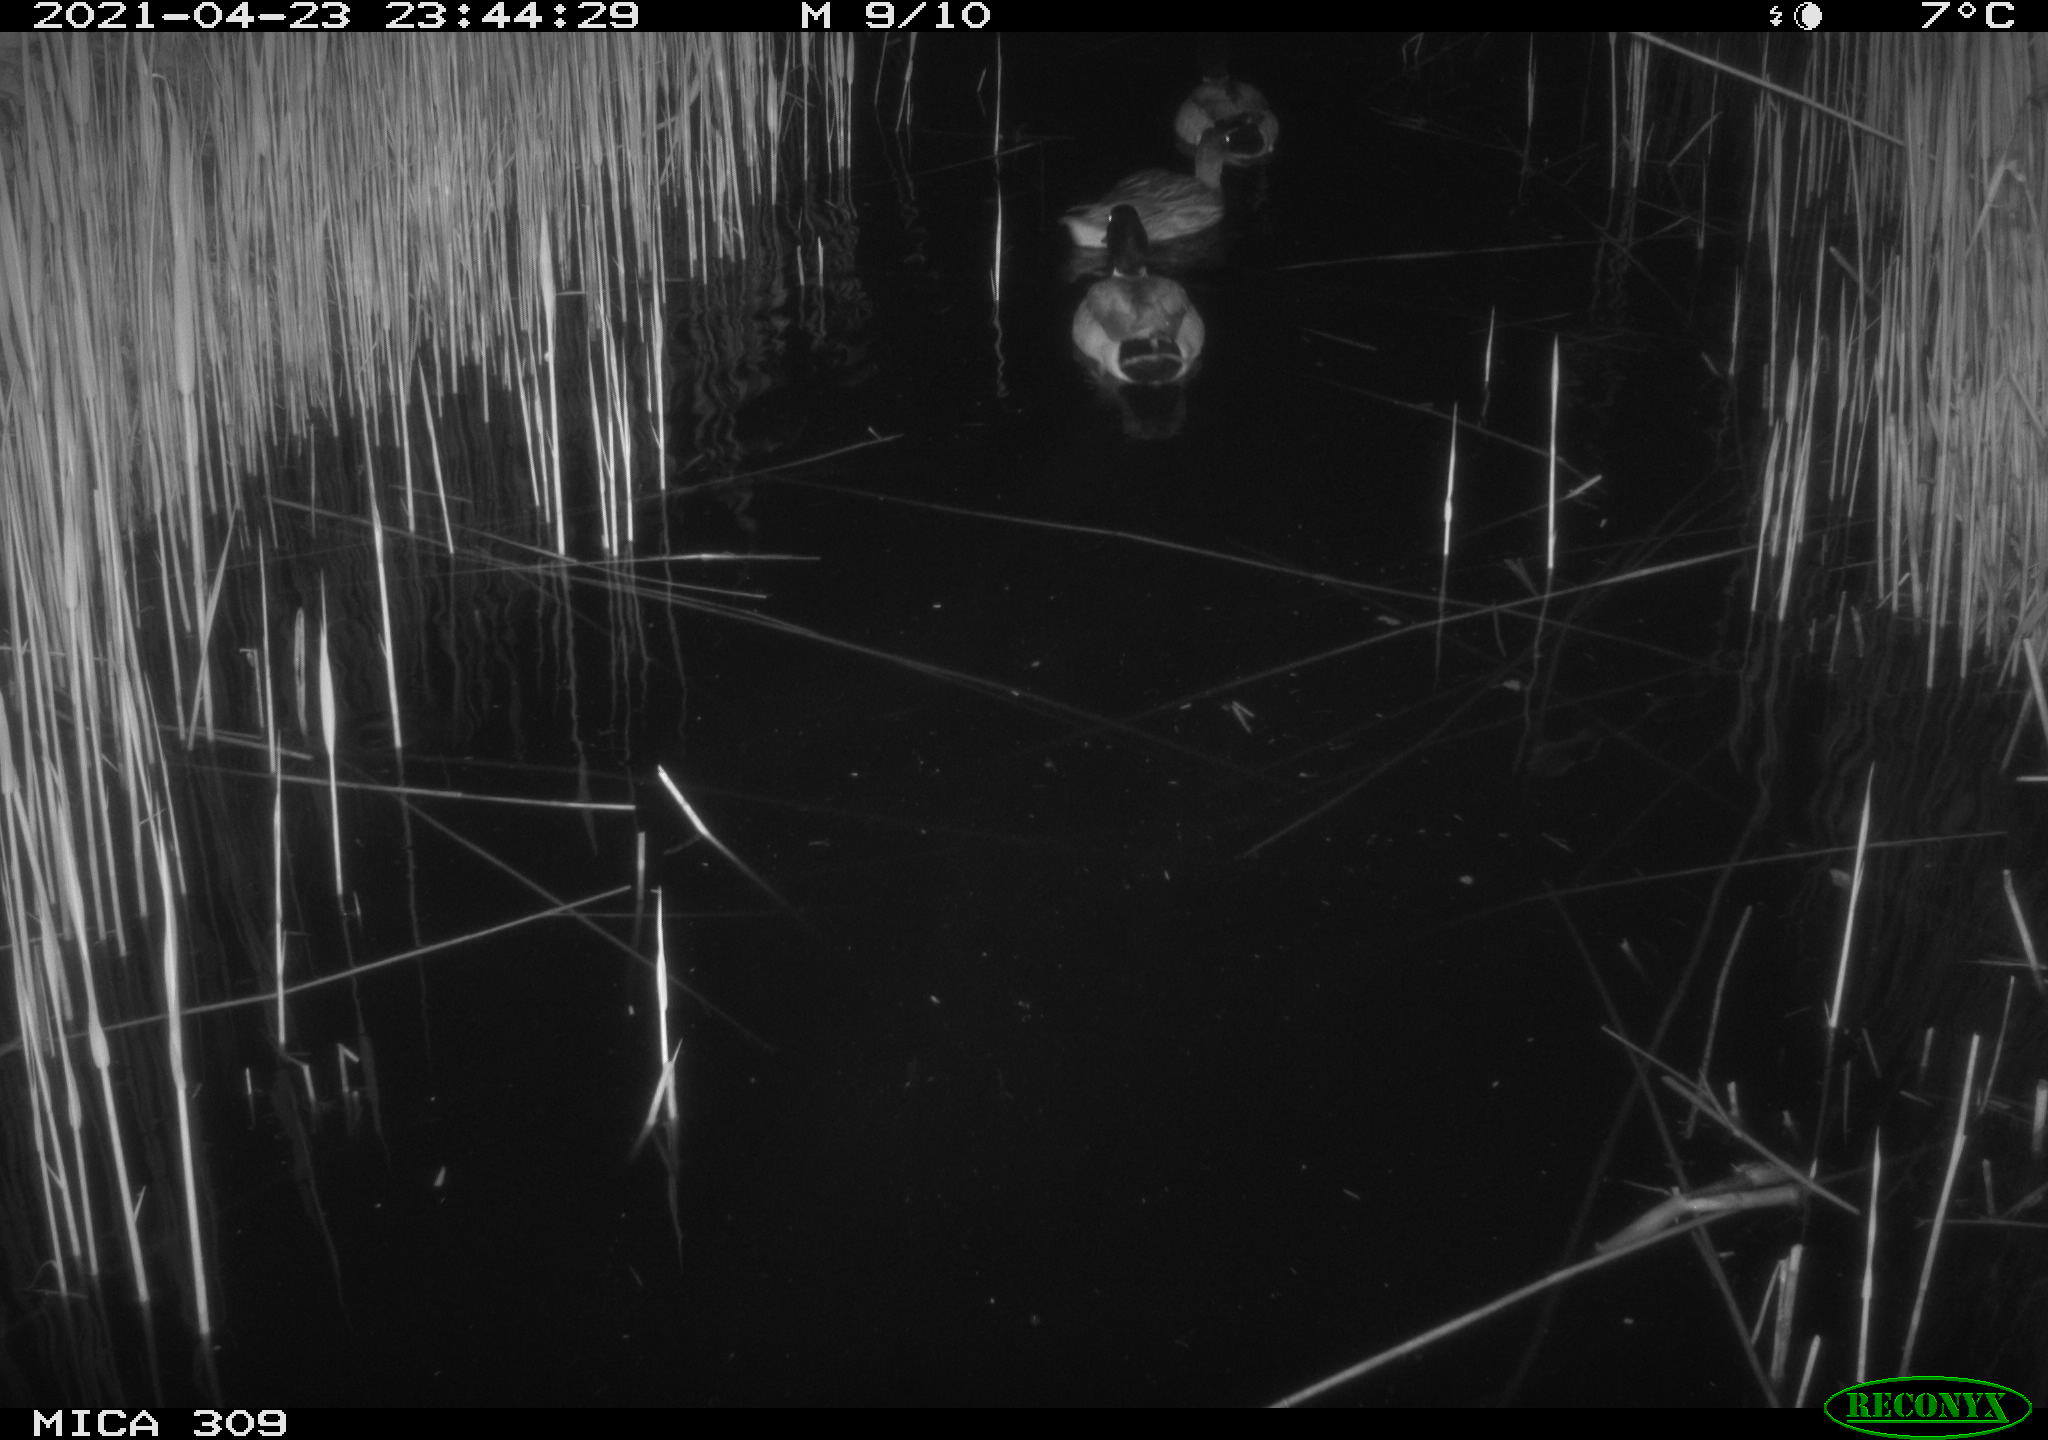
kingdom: Animalia
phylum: Chordata
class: Aves
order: Anseriformes
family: Anatidae
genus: Anas
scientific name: Anas platyrhynchos
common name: Mallard
